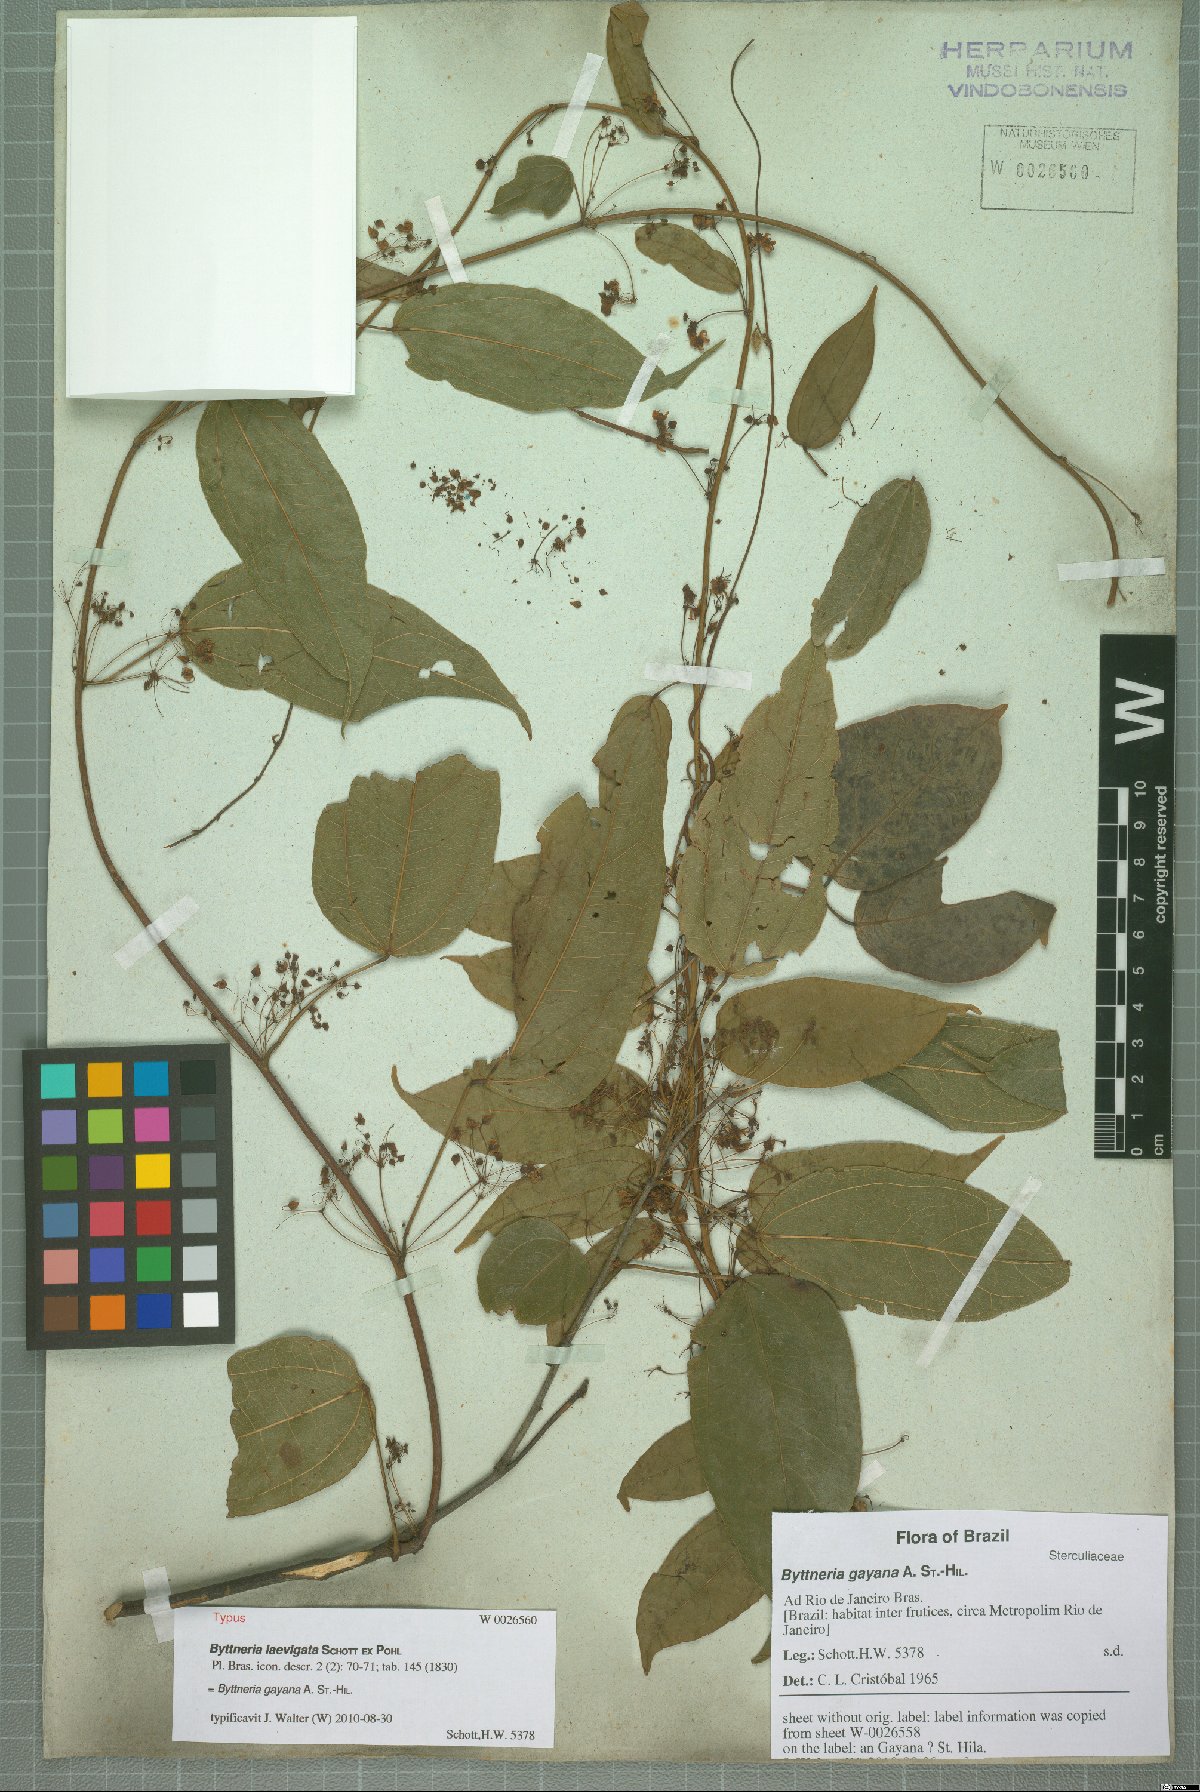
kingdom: Plantae
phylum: Tracheophyta
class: Magnoliopsida
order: Malvales
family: Malvaceae
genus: Byttneria
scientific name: Byttneria gayana
